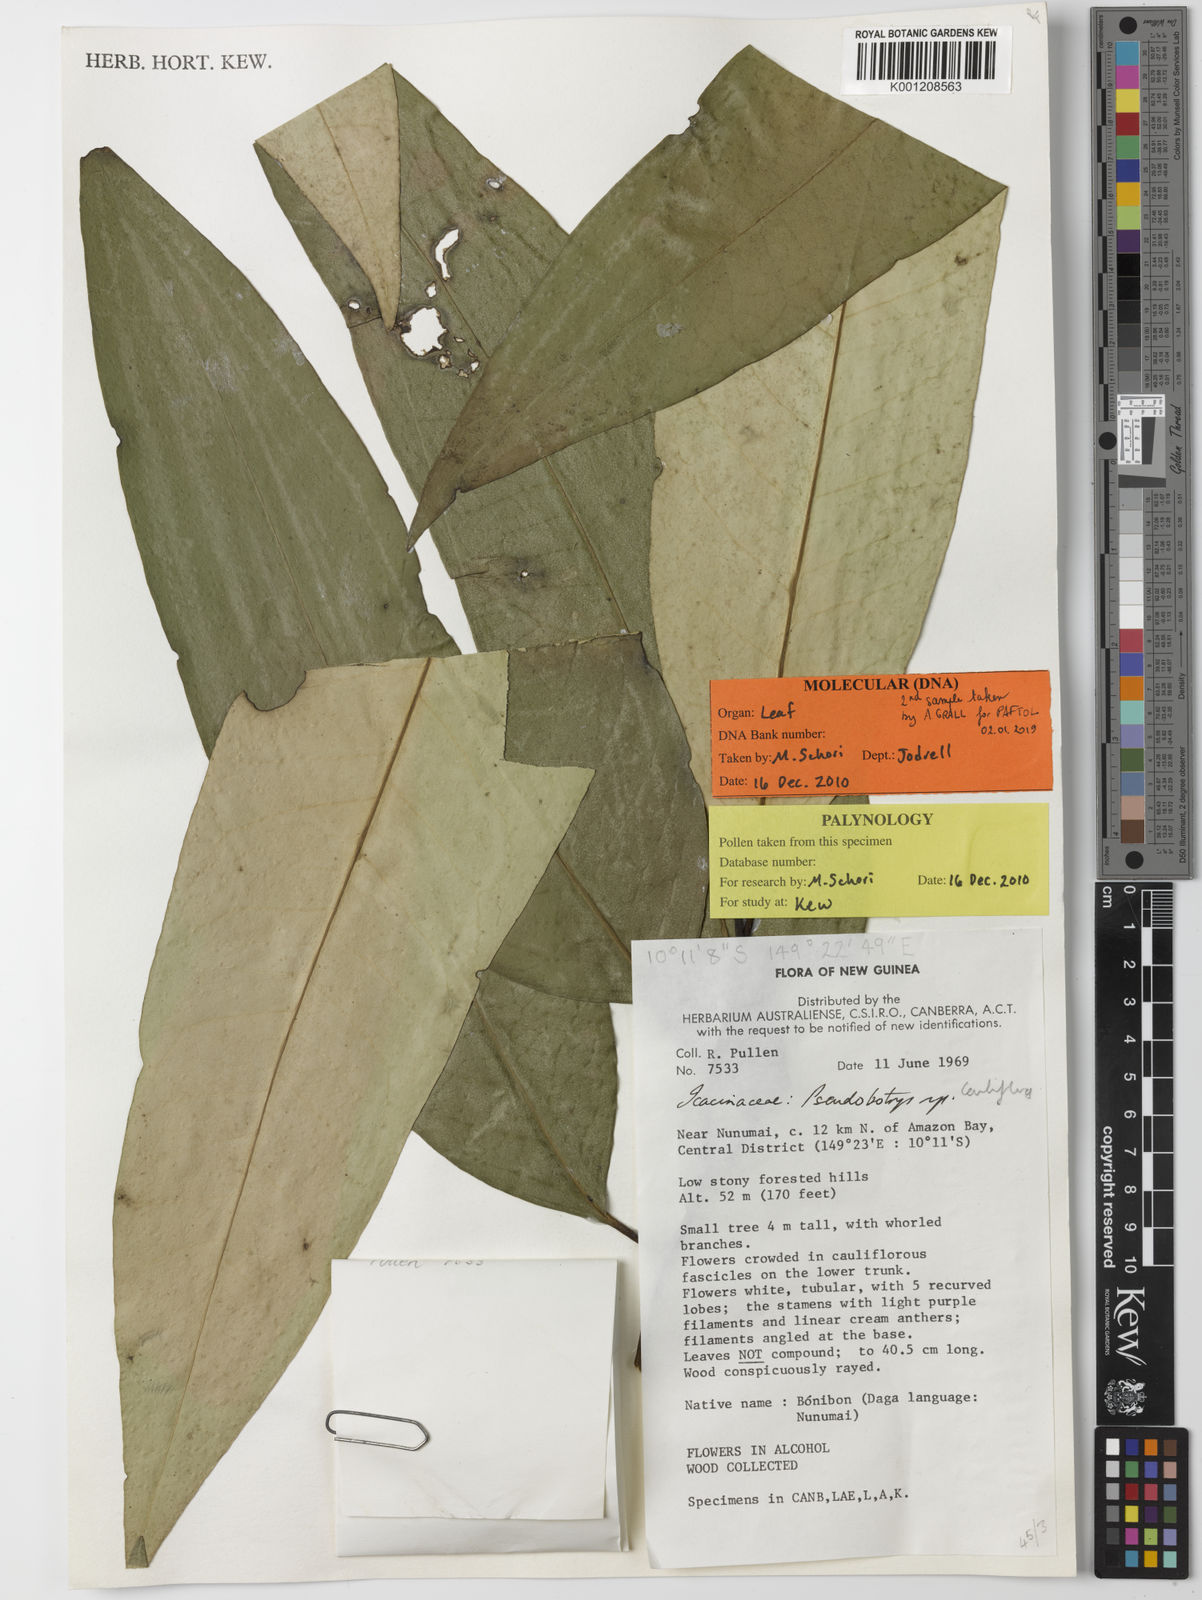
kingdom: Plantae
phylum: Tracheophyta
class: Magnoliopsida
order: Cardiopteridales
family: Cardiopteridaceae
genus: Pseudobotrys
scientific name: Pseudobotrys
